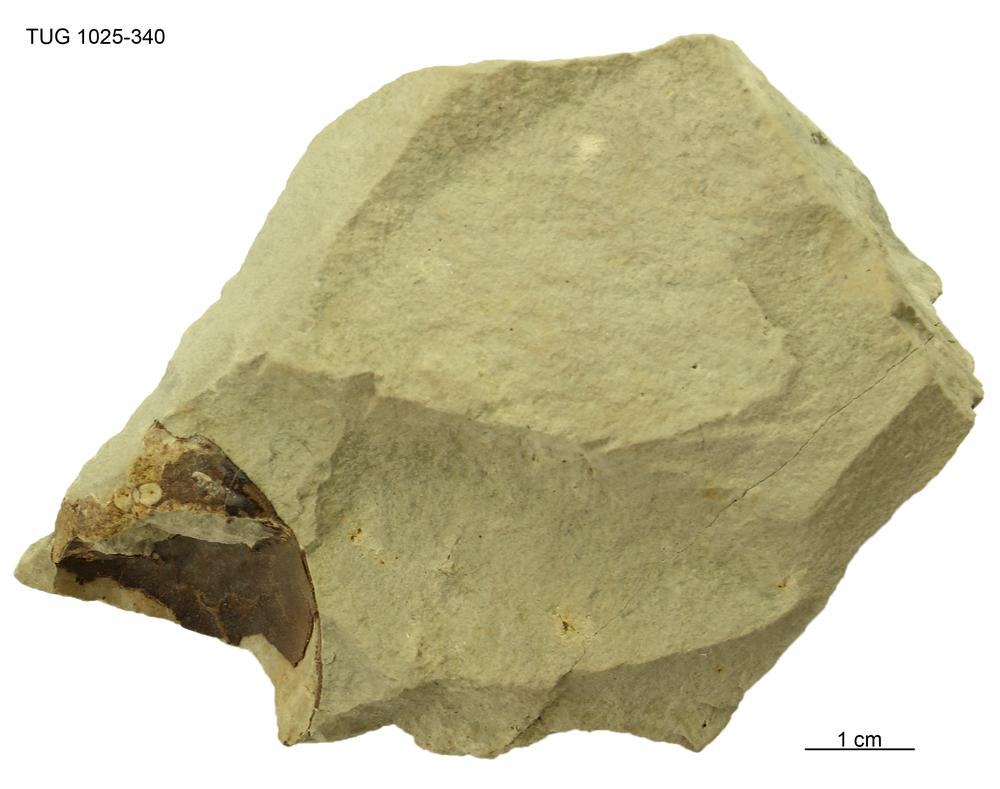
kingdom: Animalia
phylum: Chordata
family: Tremataspididae
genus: Tremataspis
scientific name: Tremataspis
